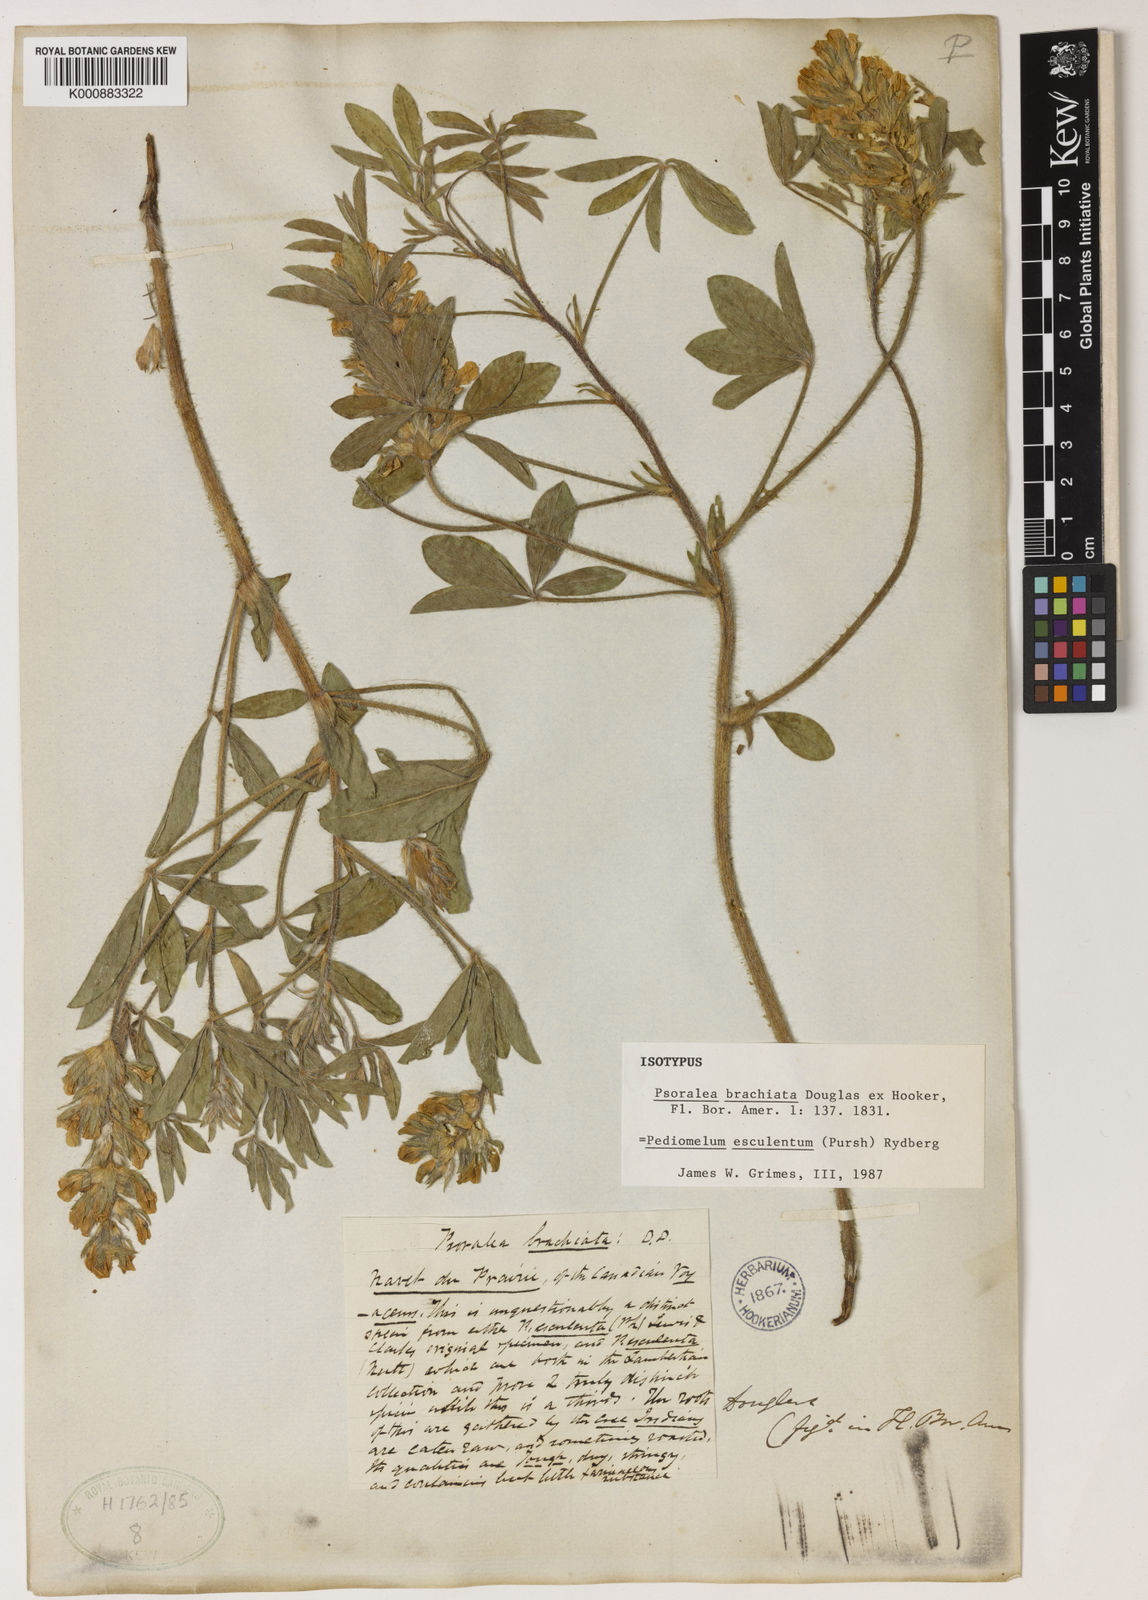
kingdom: Plantae
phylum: Tracheophyta
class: Magnoliopsida
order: Fabales
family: Fabaceae
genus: Pediomelum
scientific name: Pediomelum esculentum
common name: Indian-turnip
